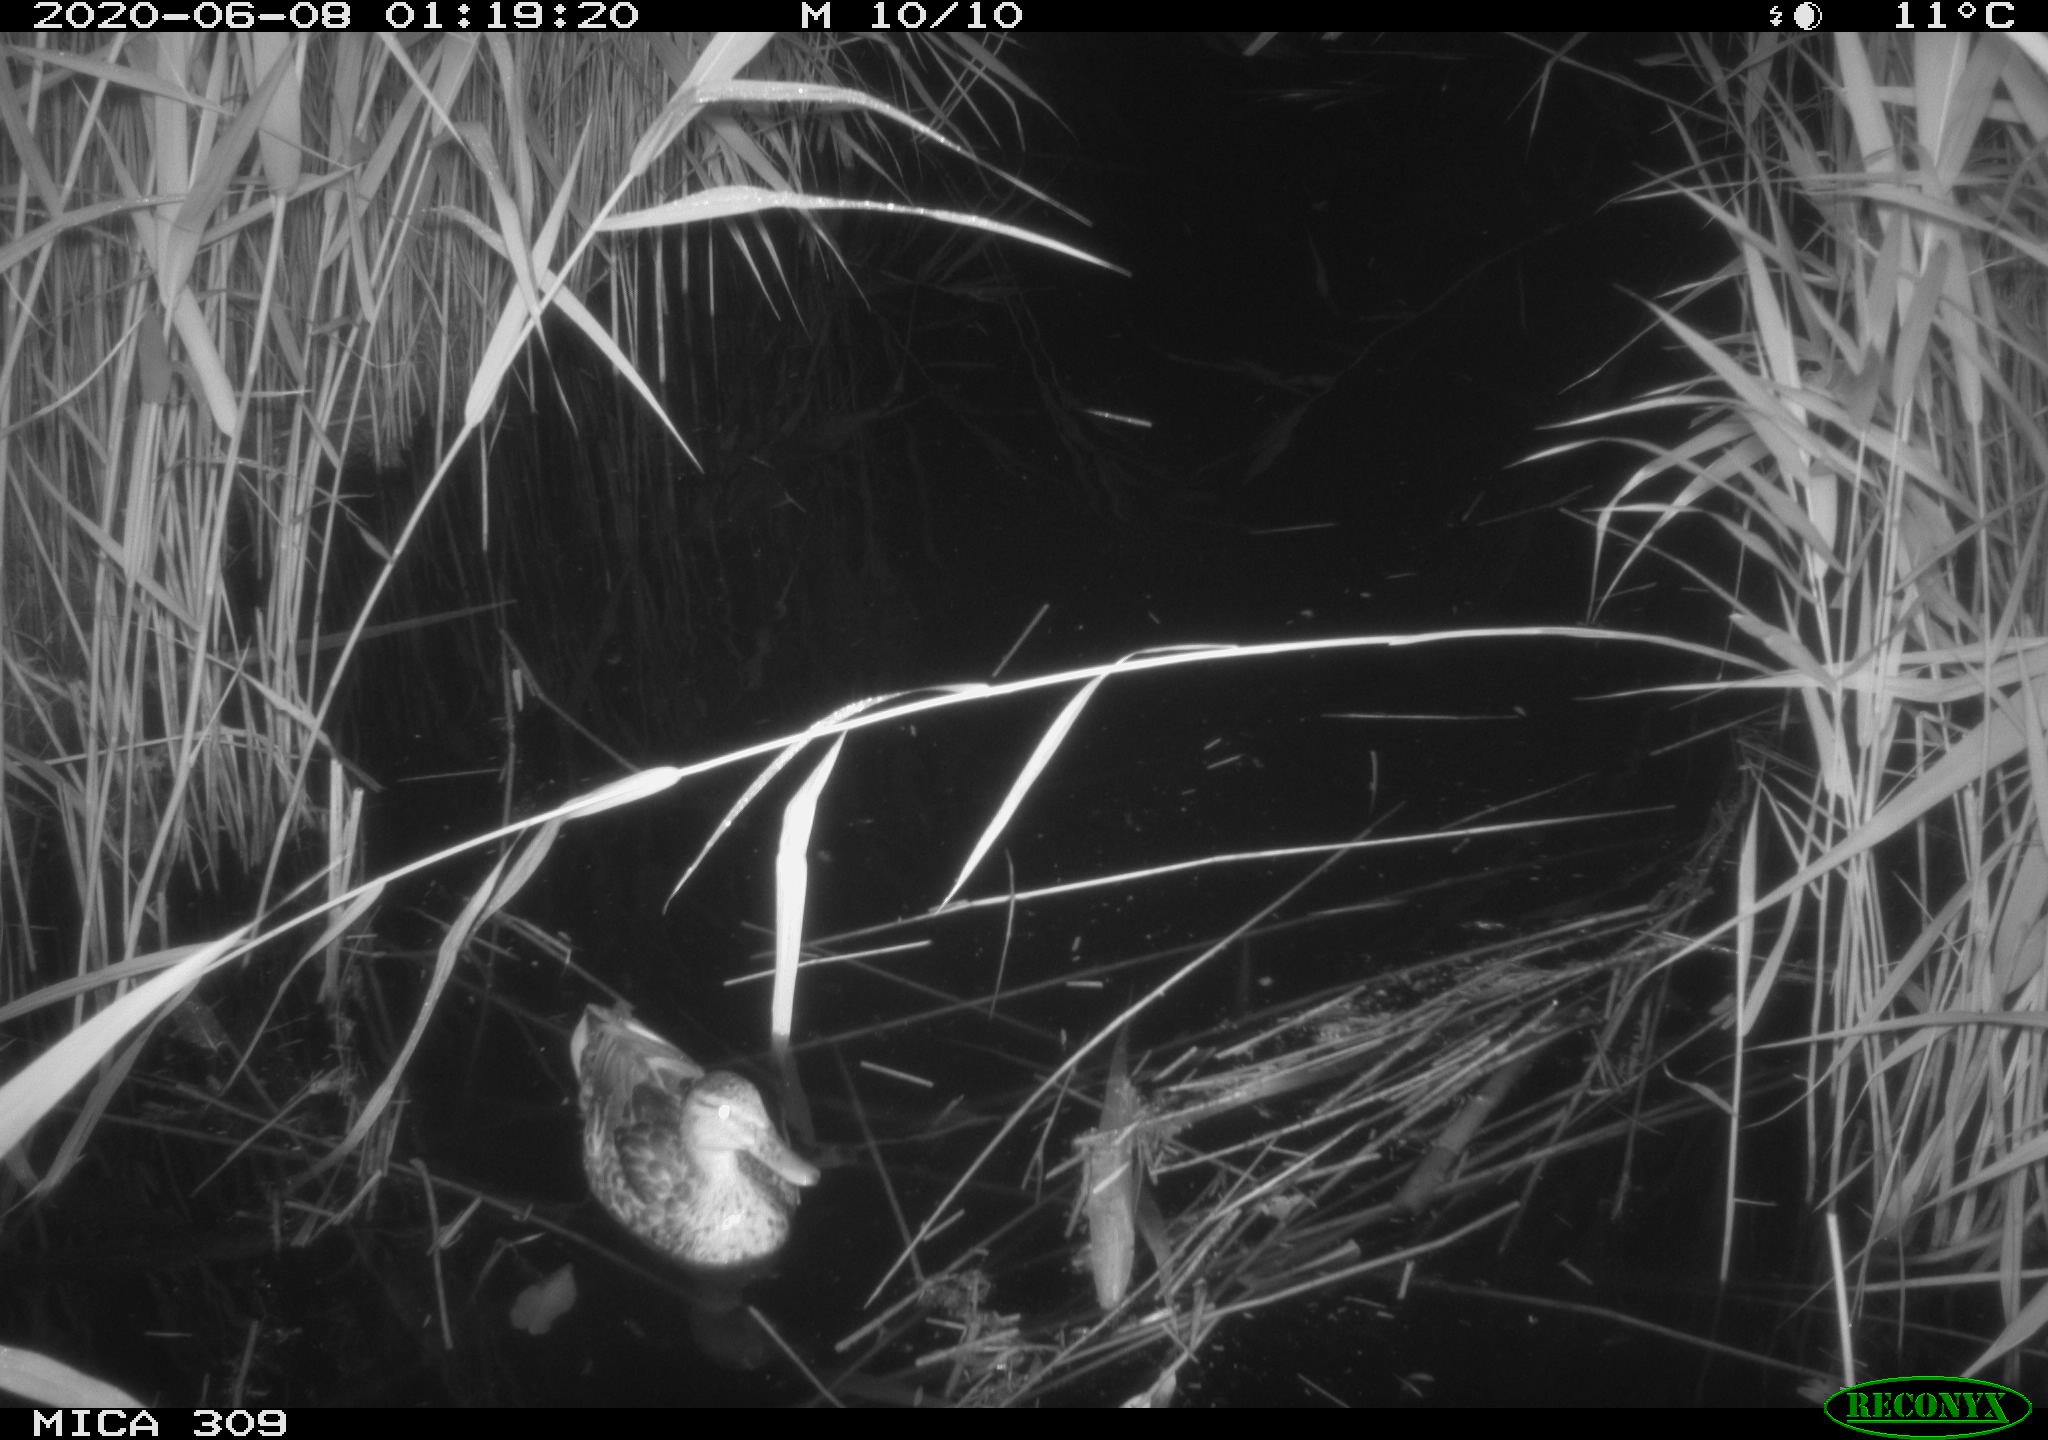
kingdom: Animalia
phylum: Chordata
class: Aves
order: Anseriformes
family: Anatidae
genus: Anas
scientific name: Anas platyrhynchos
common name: Mallard
